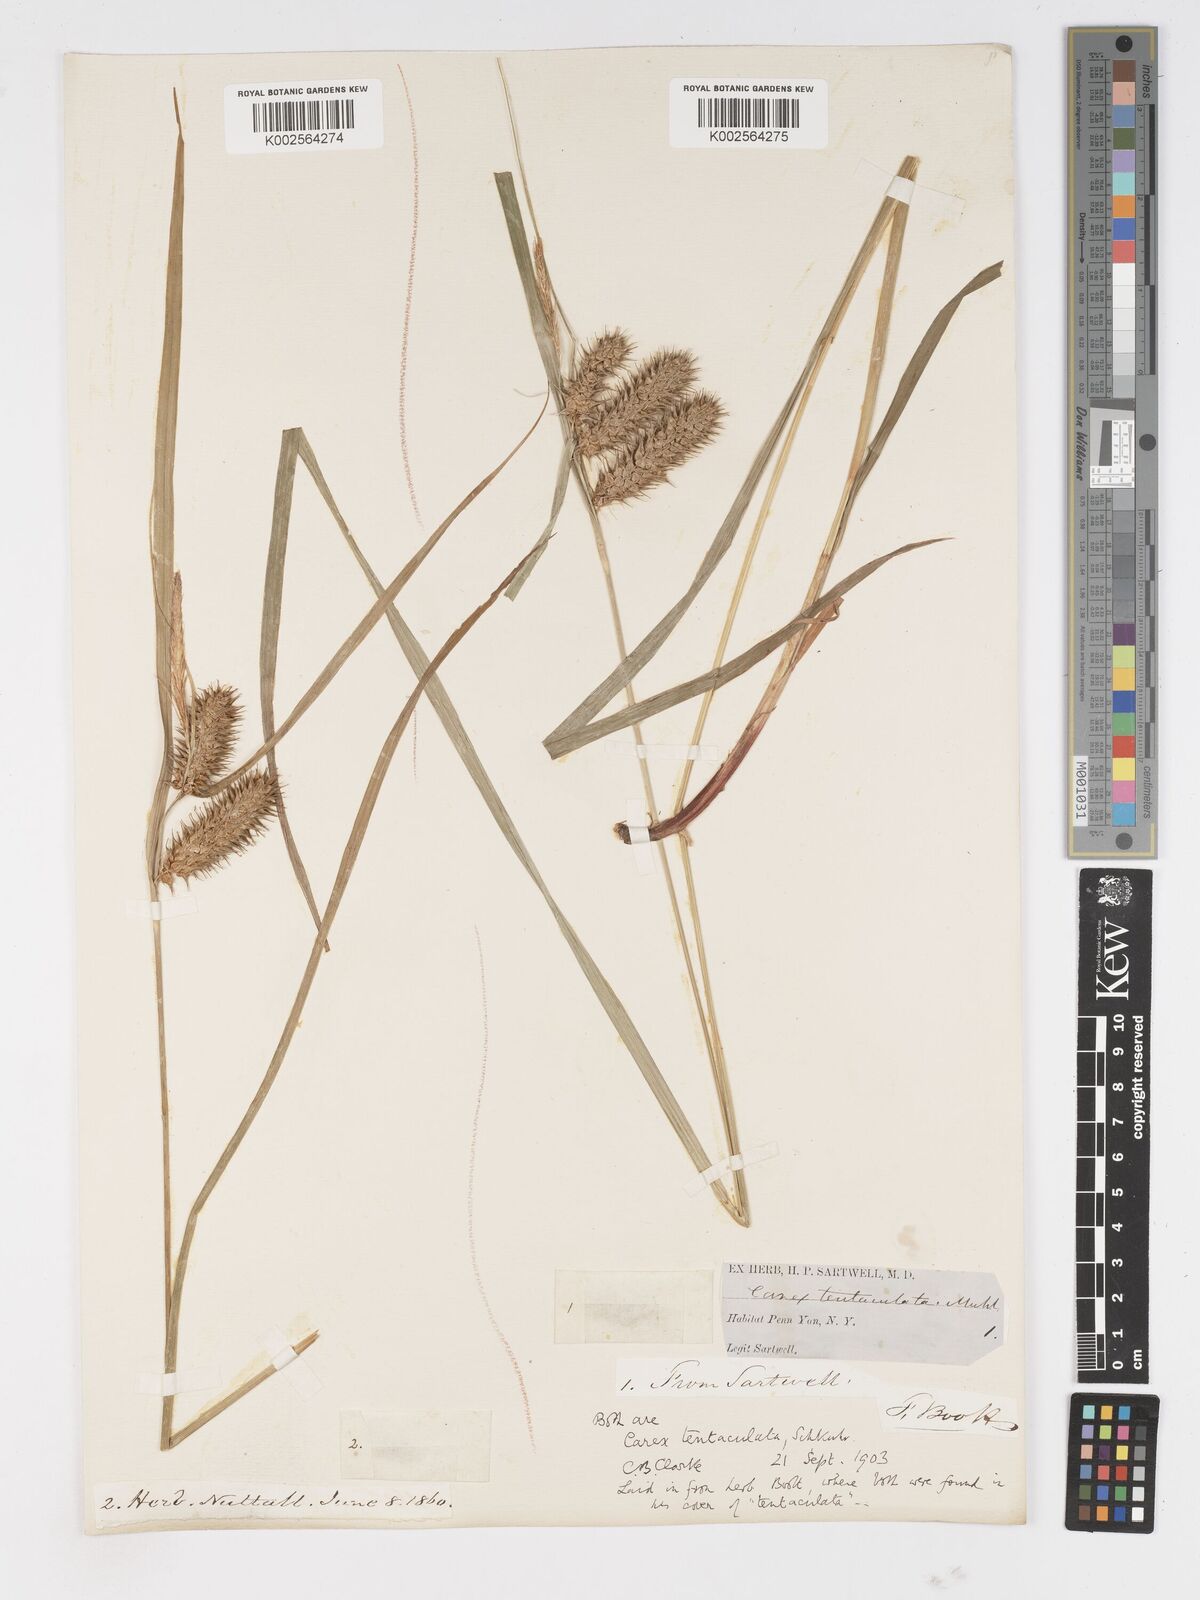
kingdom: Plantae
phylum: Tracheophyta
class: Liliopsida
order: Poales
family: Cyperaceae
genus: Carex
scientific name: Carex lurida
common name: Sallow sedge
